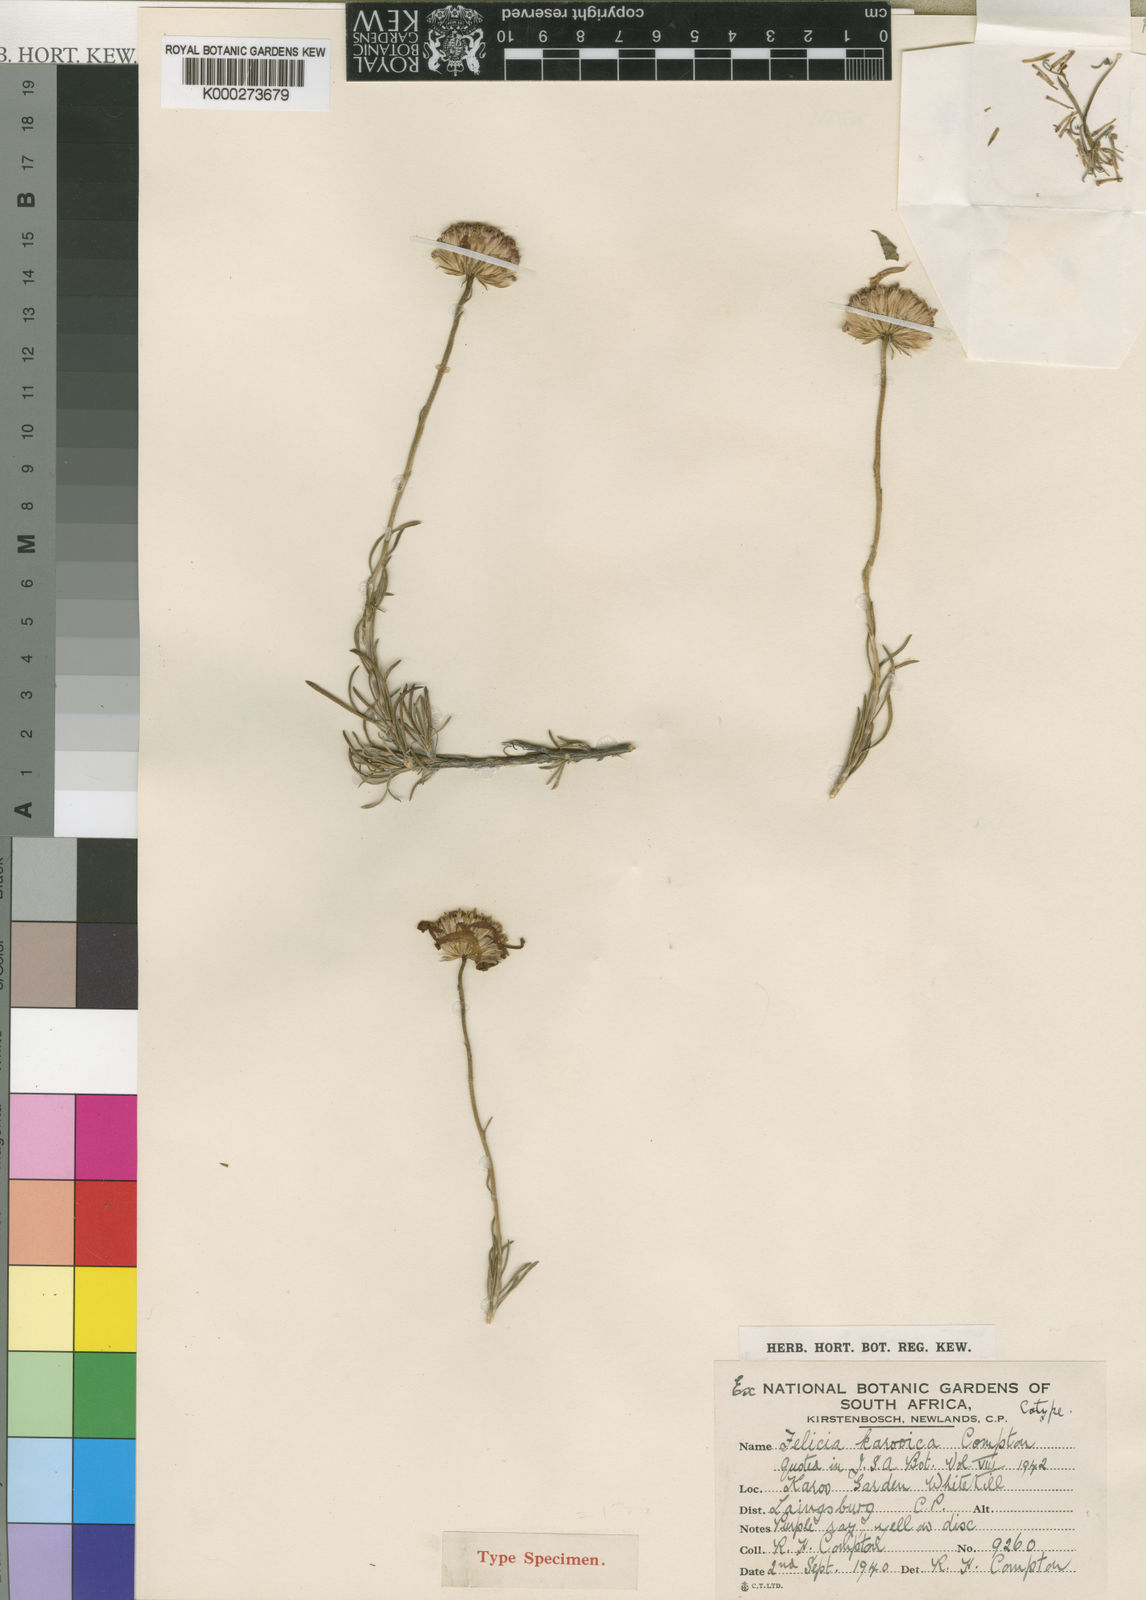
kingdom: Plantae
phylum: Tracheophyta
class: Magnoliopsida
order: Asterales
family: Asteraceae
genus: Zyrphelis
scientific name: Zyrphelis lasiocarpa
